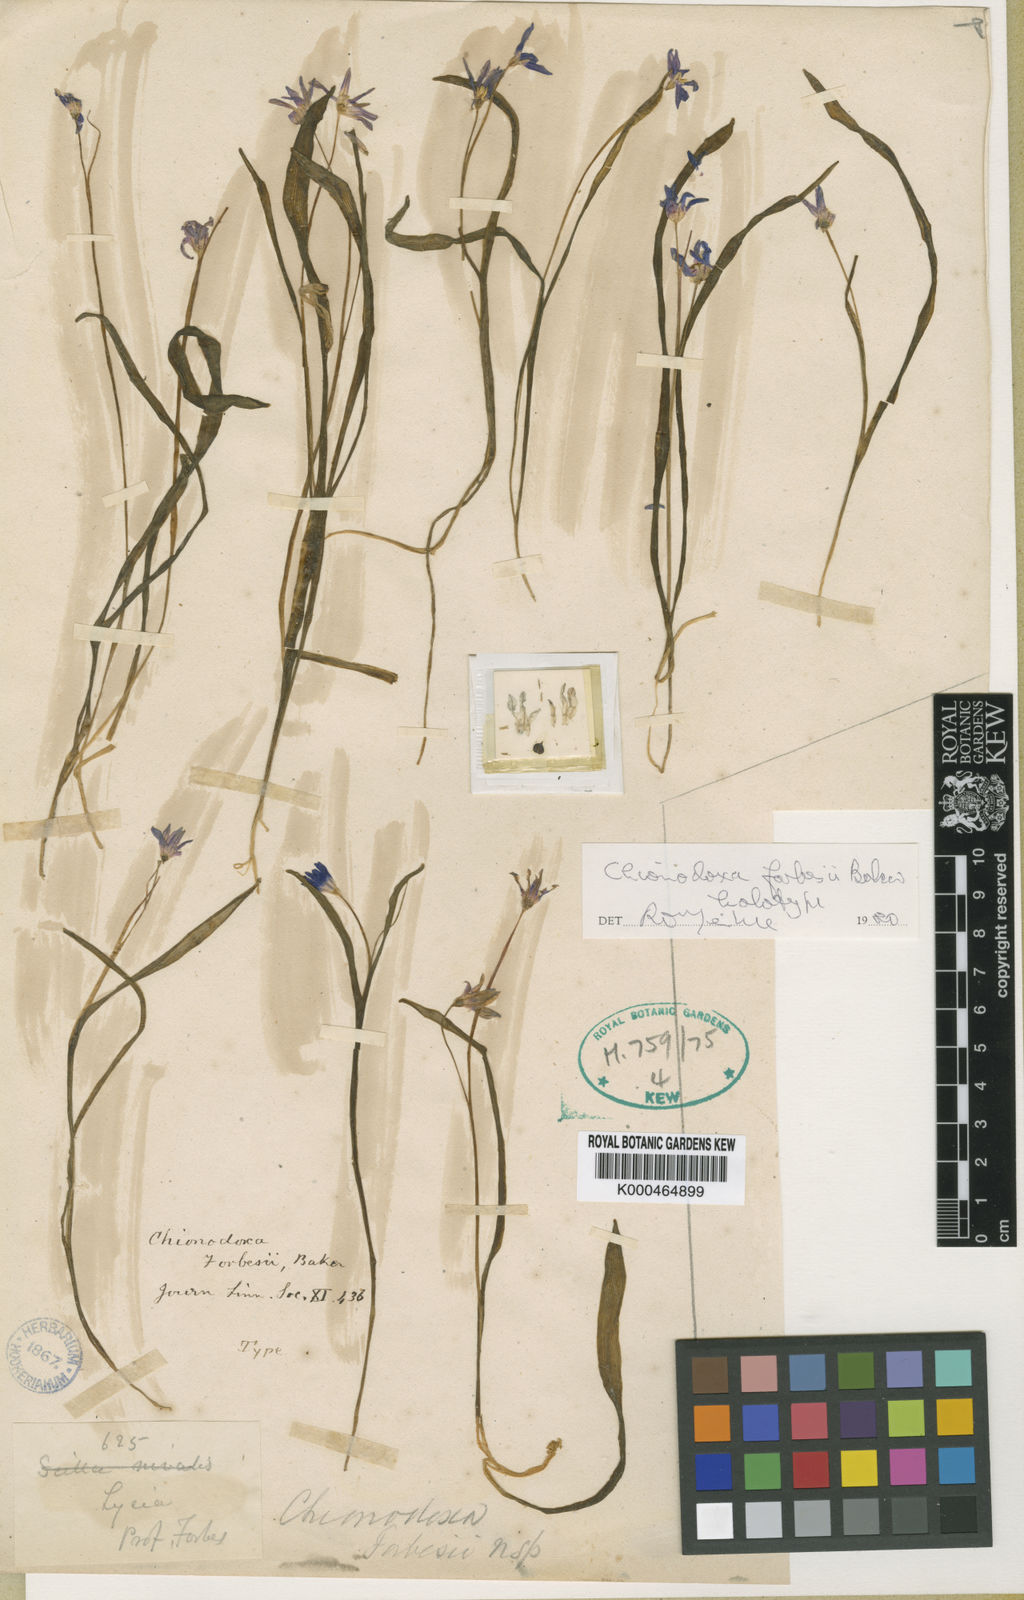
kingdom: Plantae
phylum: Tracheophyta
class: Liliopsida
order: Asparagales
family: Asparagaceae
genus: Scilla
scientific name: Scilla forbesii
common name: Glory-of-the-snow
